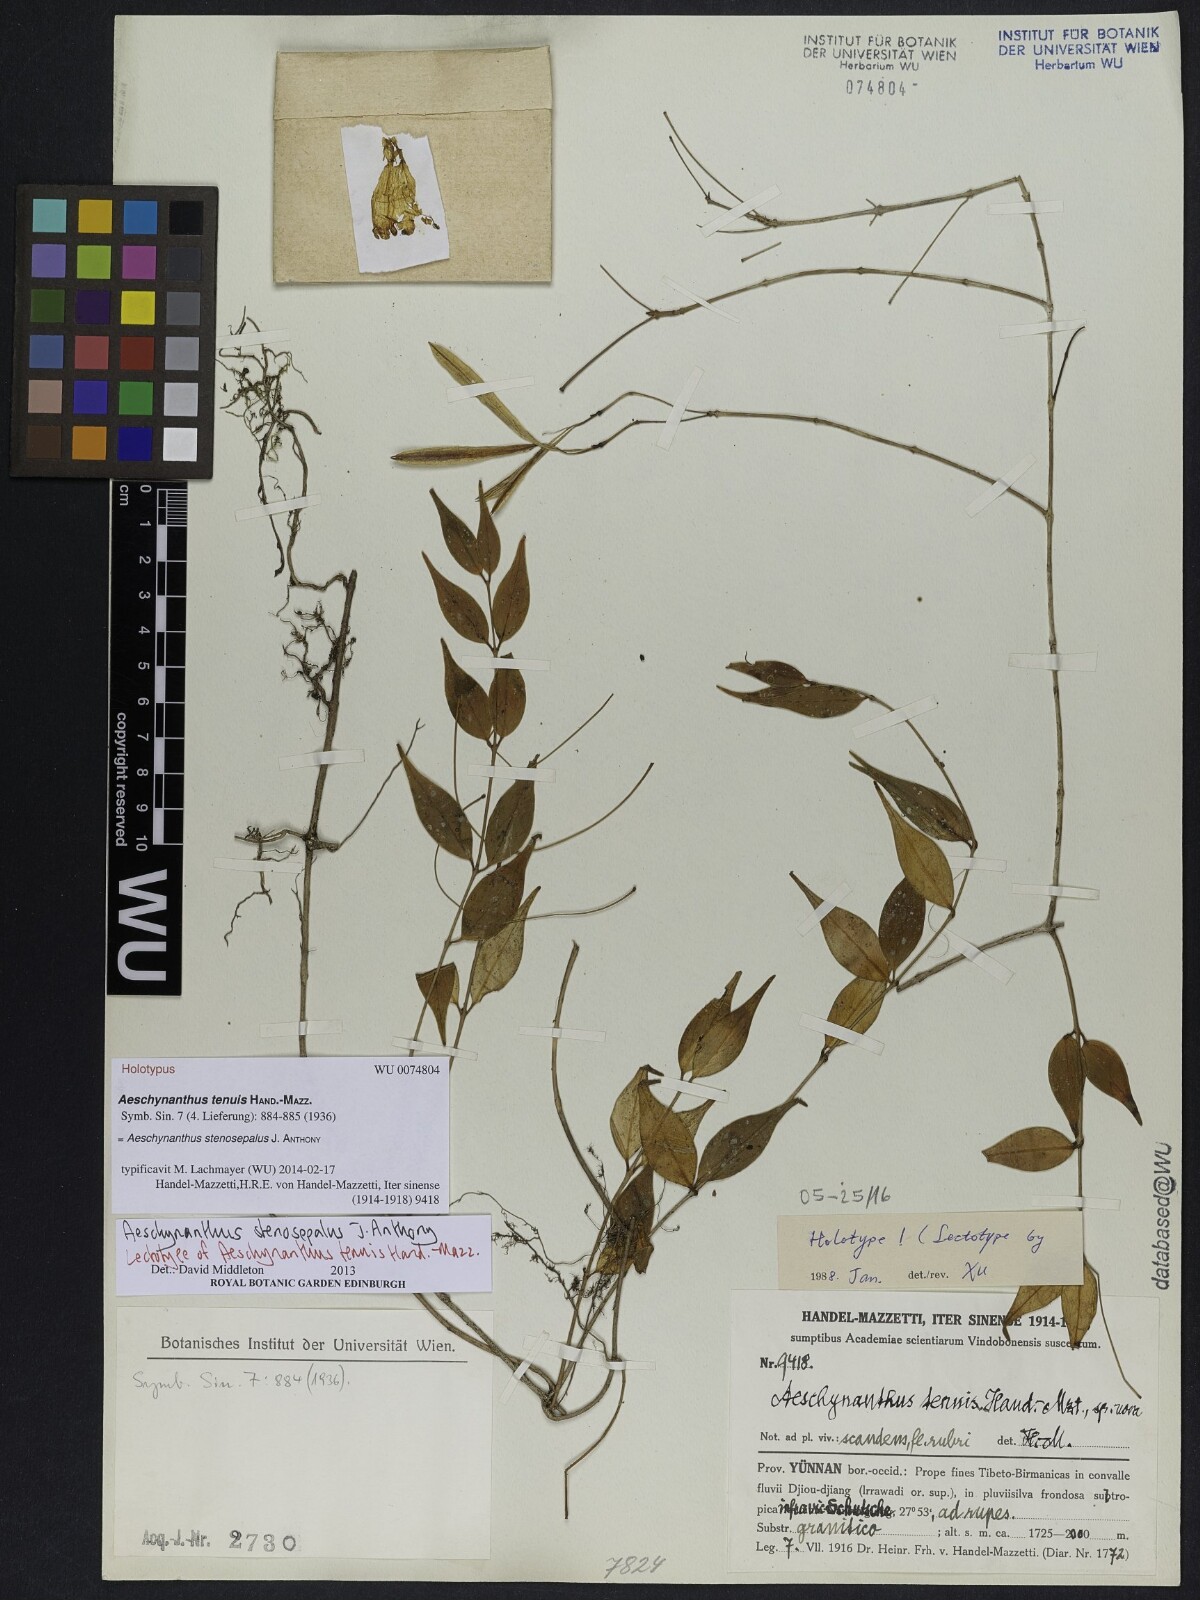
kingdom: Plantae
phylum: Tracheophyta
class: Magnoliopsida
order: Lamiales
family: Gesneriaceae
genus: Aeschynanthus
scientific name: Aeschynanthus stenosepalus
